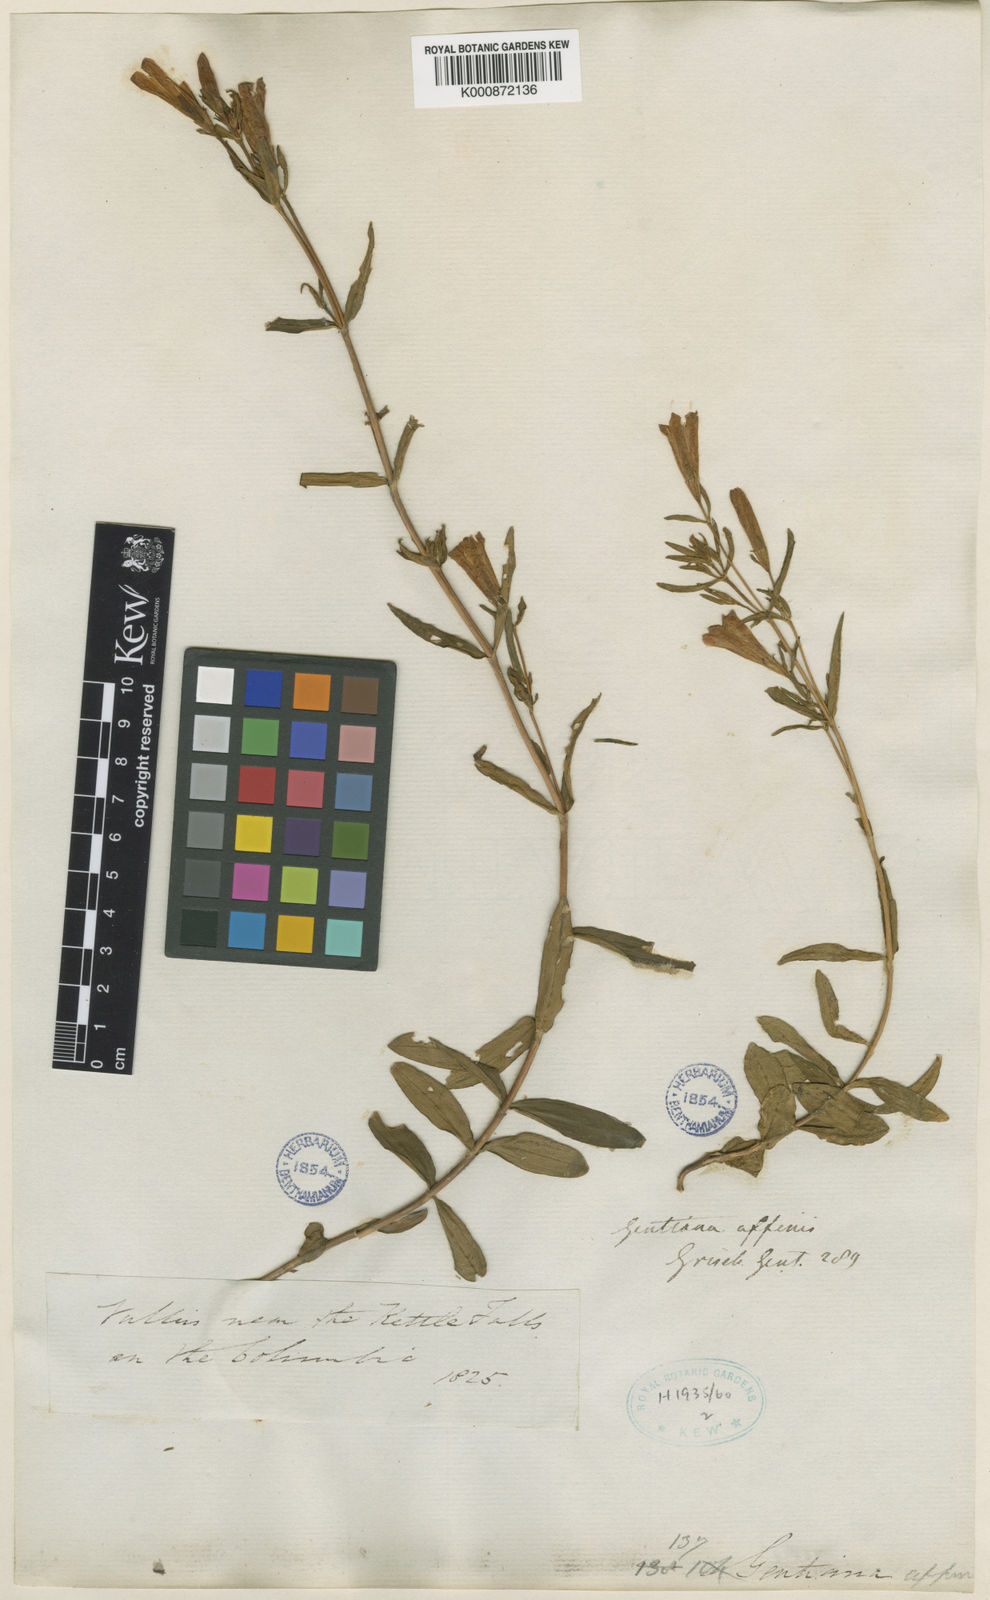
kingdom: Plantae
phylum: Tracheophyta
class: Magnoliopsida
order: Gentianales
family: Gentianaceae
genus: Gentiana
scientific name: Gentiana affinis
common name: Rocky mountain gentian
